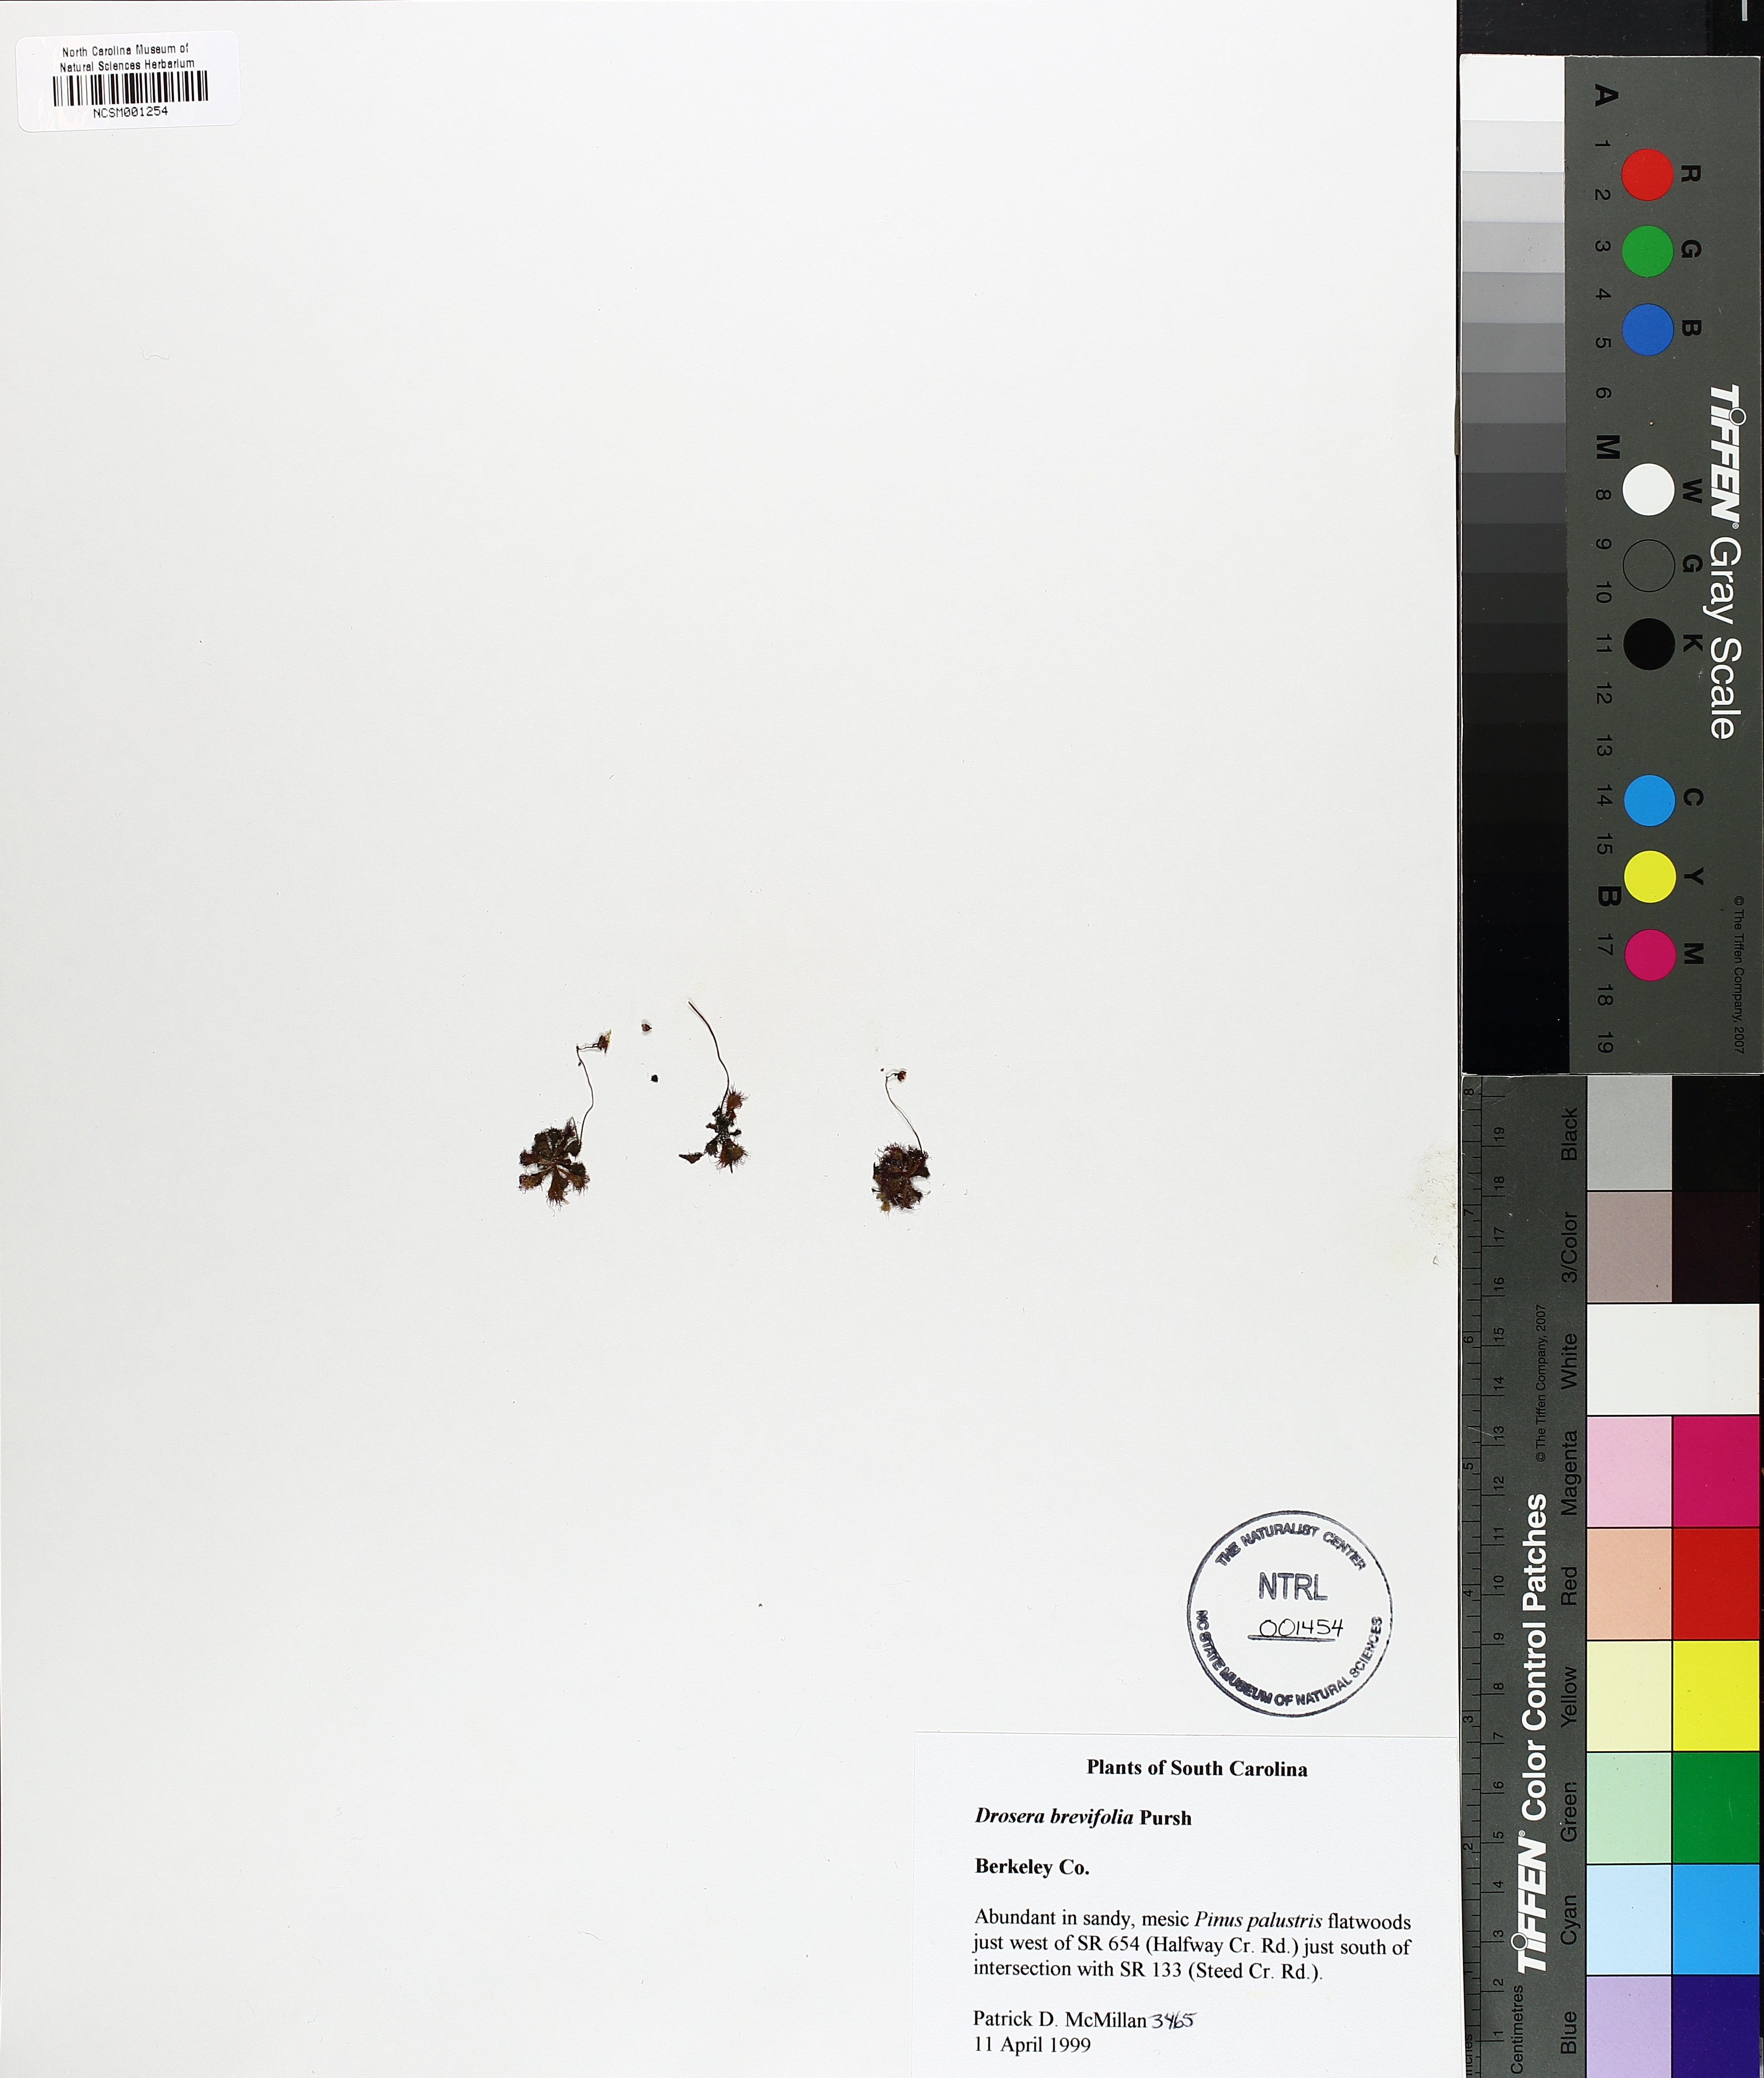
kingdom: Plantae
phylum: Tracheophyta
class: Magnoliopsida
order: Caryophyllales
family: Droseraceae
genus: Drosera
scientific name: Drosera brevifolia
